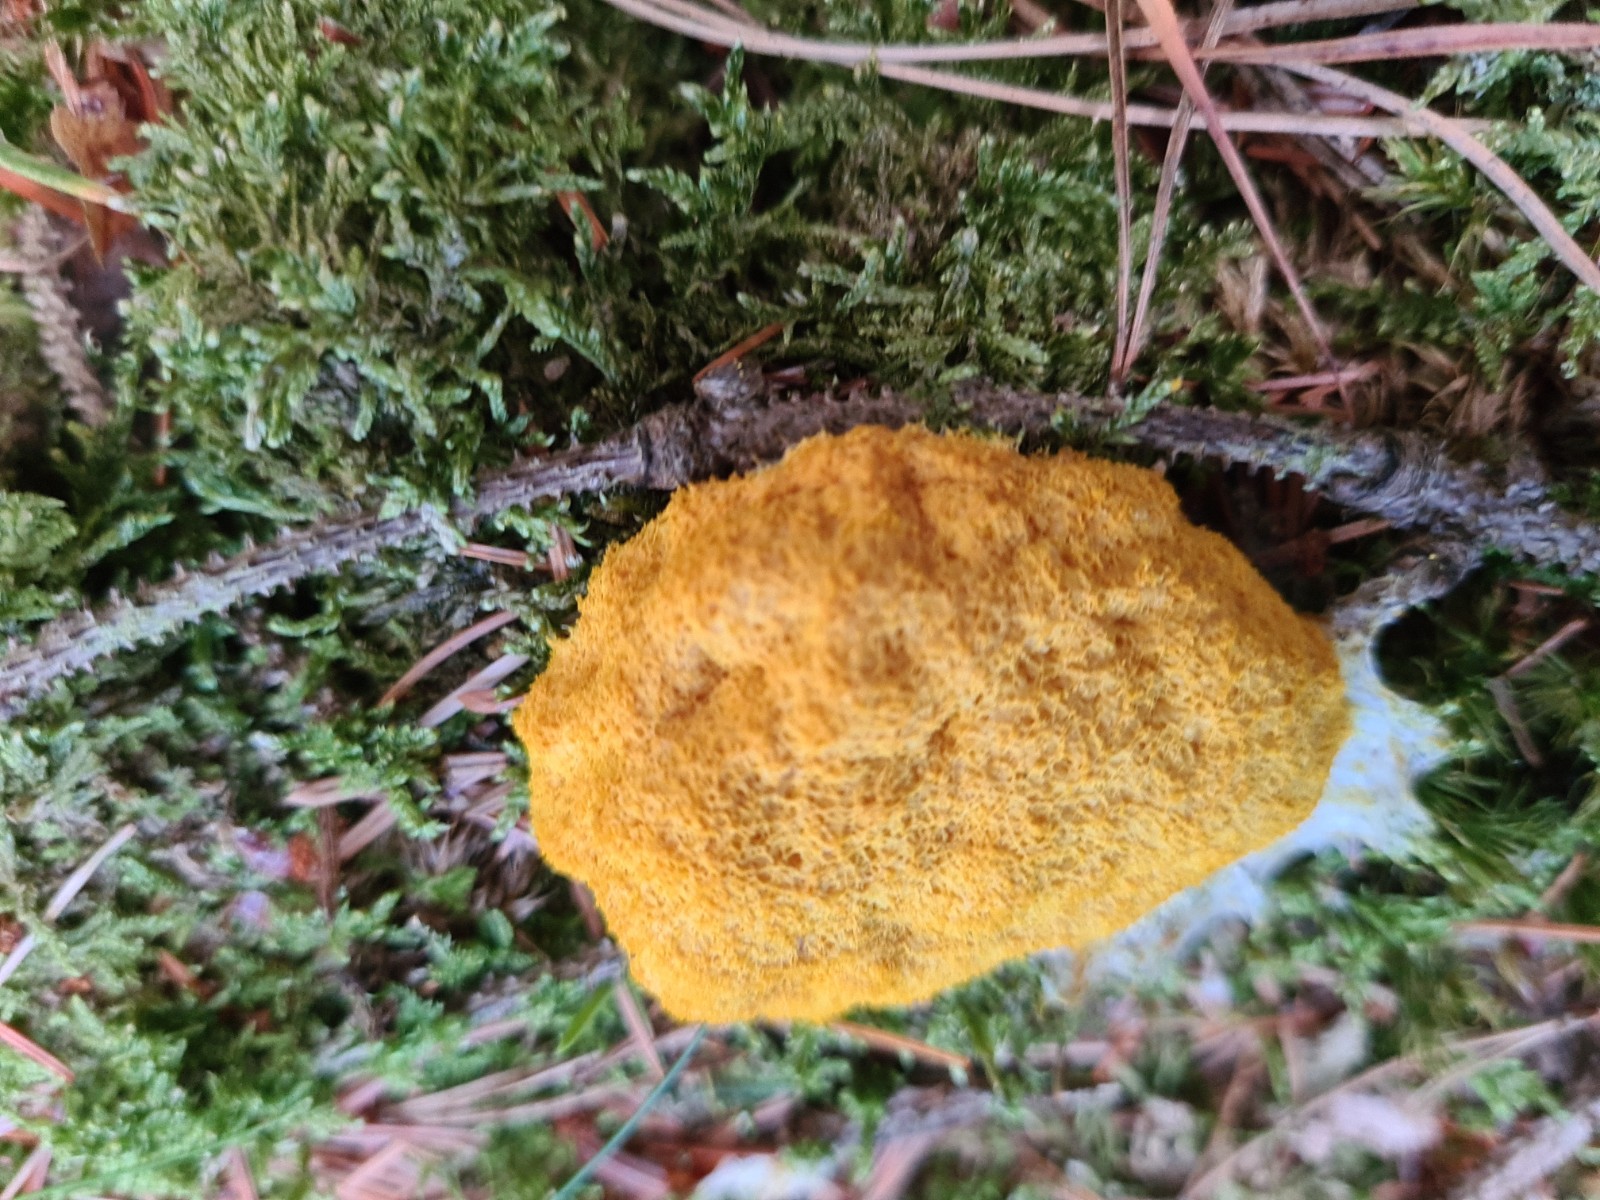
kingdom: Protozoa
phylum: Mycetozoa
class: Myxomycetes
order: Physarales
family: Physaraceae
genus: Fuligo
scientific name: Fuligo septica
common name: gul troldsmør
